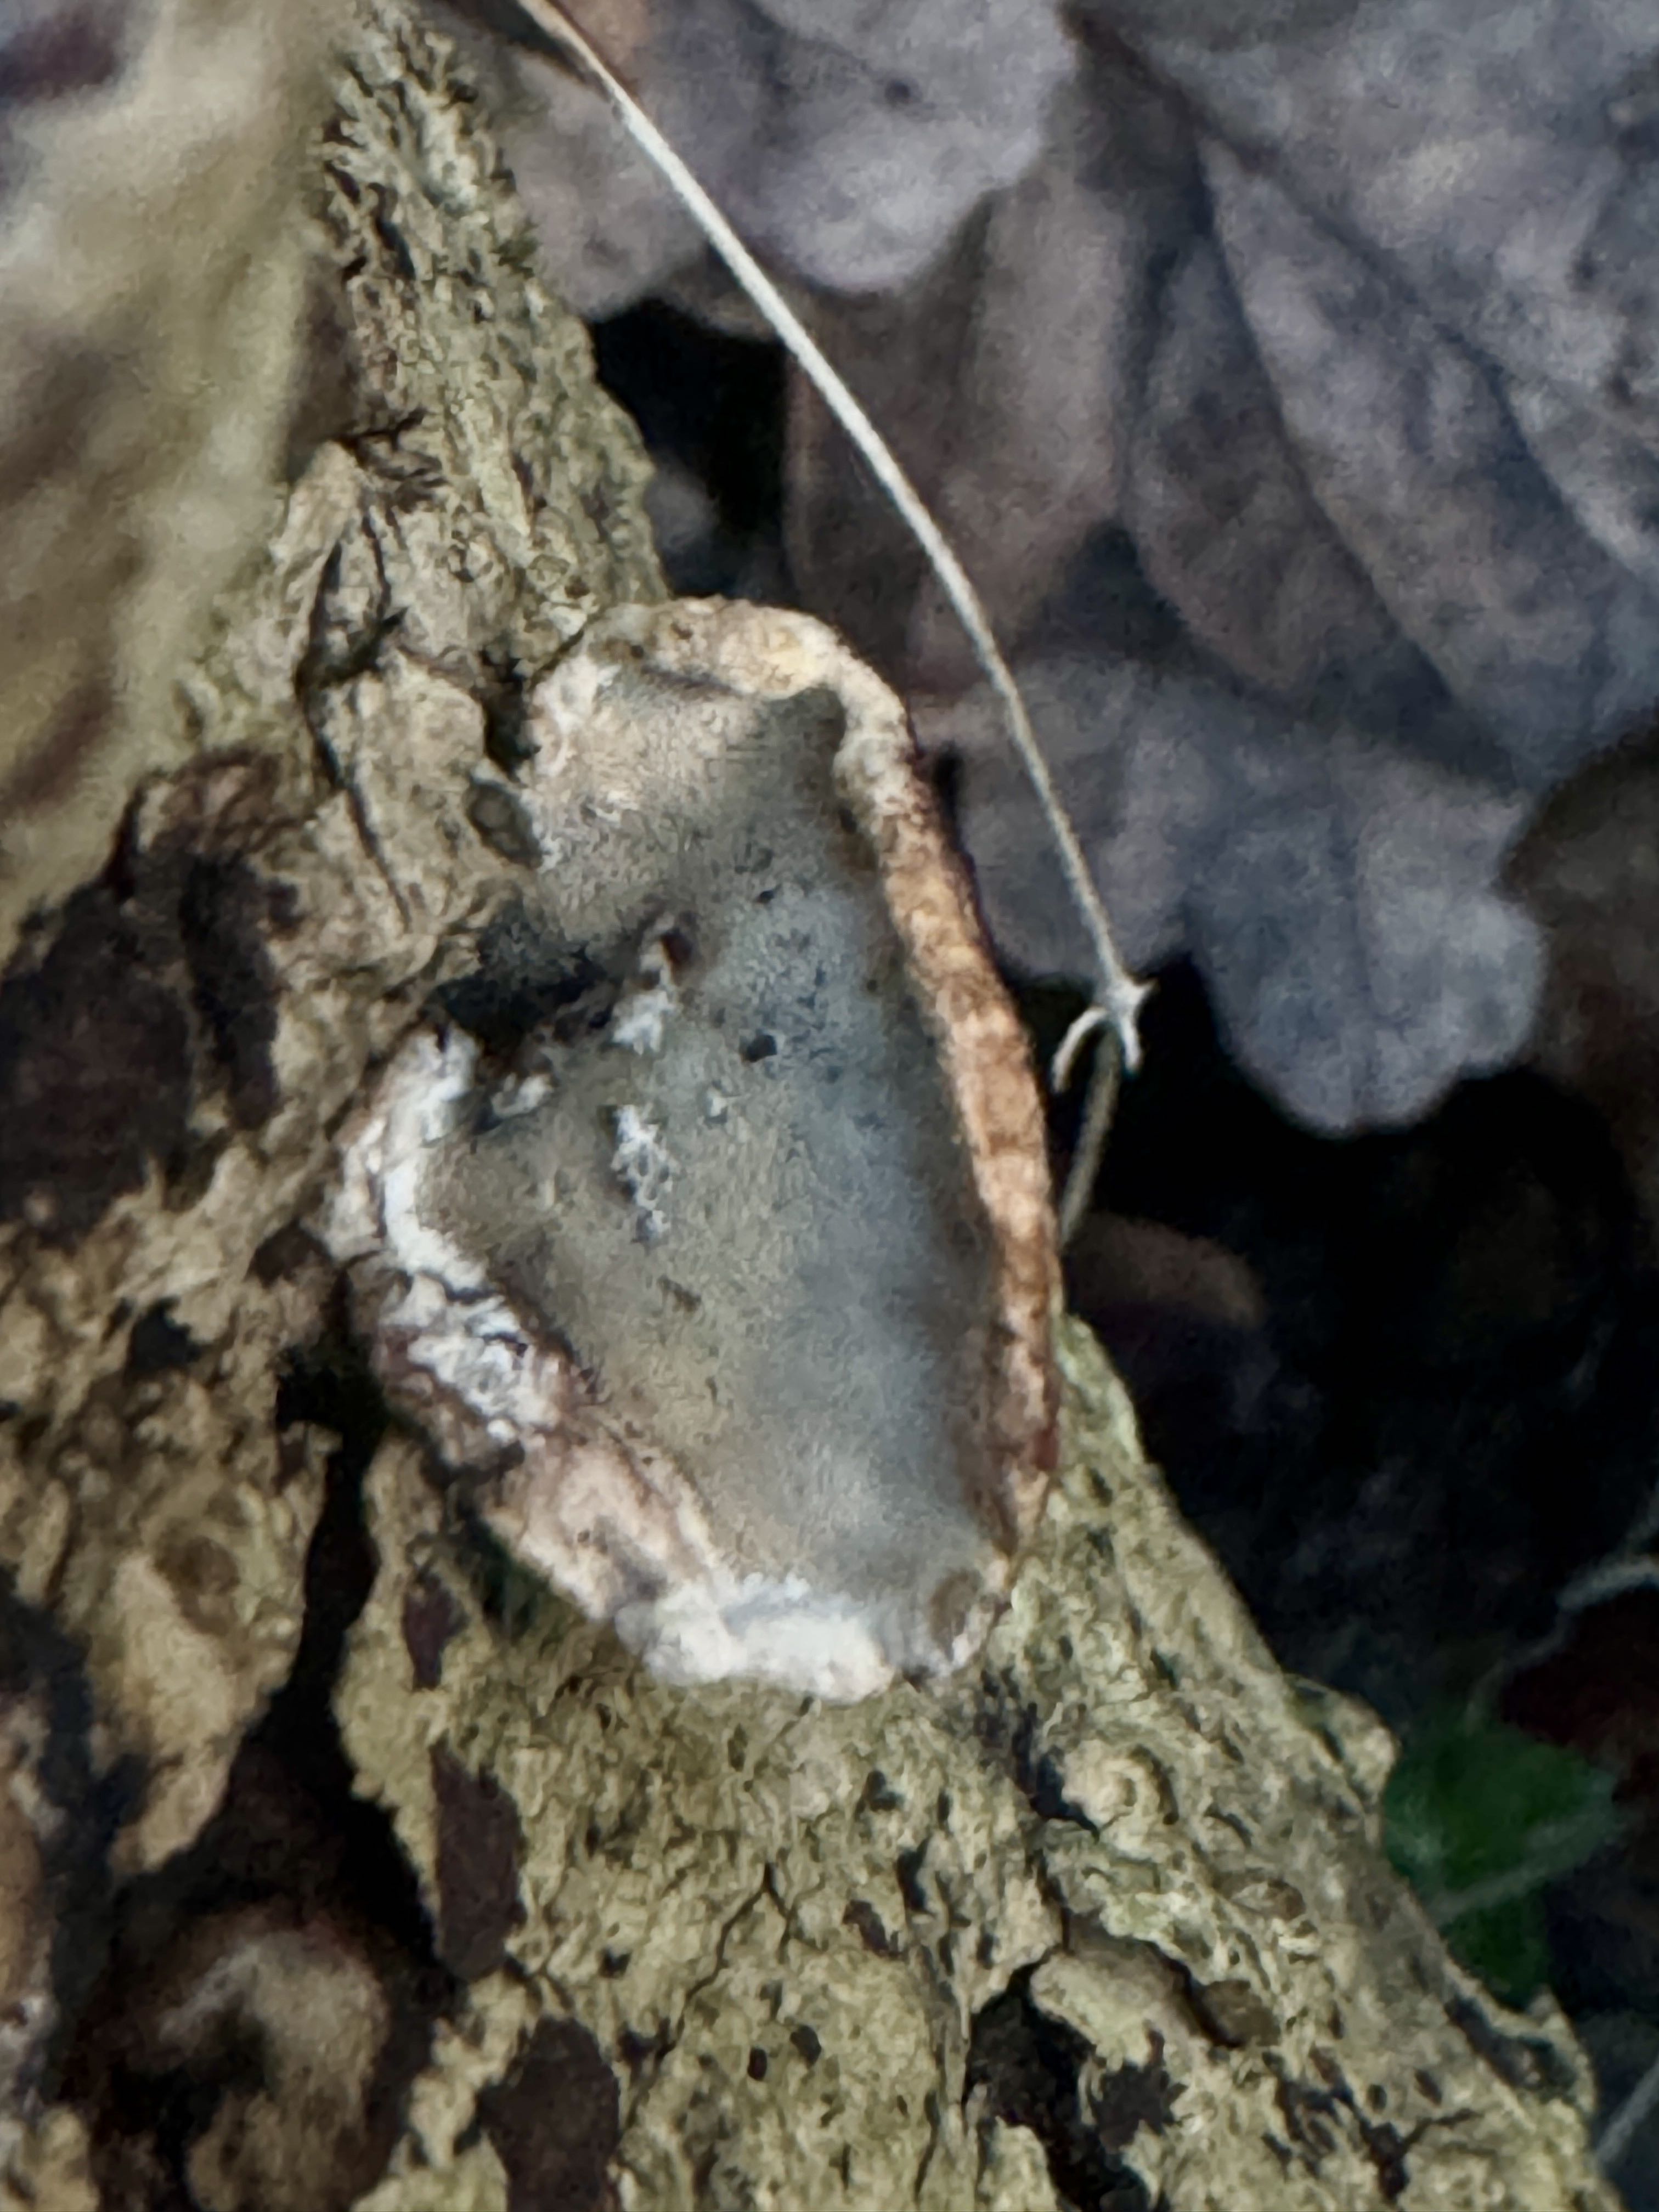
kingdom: Fungi
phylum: Basidiomycota
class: Agaricomycetes
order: Polyporales
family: Incrustoporiaceae
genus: Skeletocutis
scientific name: Skeletocutis nemoralis
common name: stor krystalporesvamp
